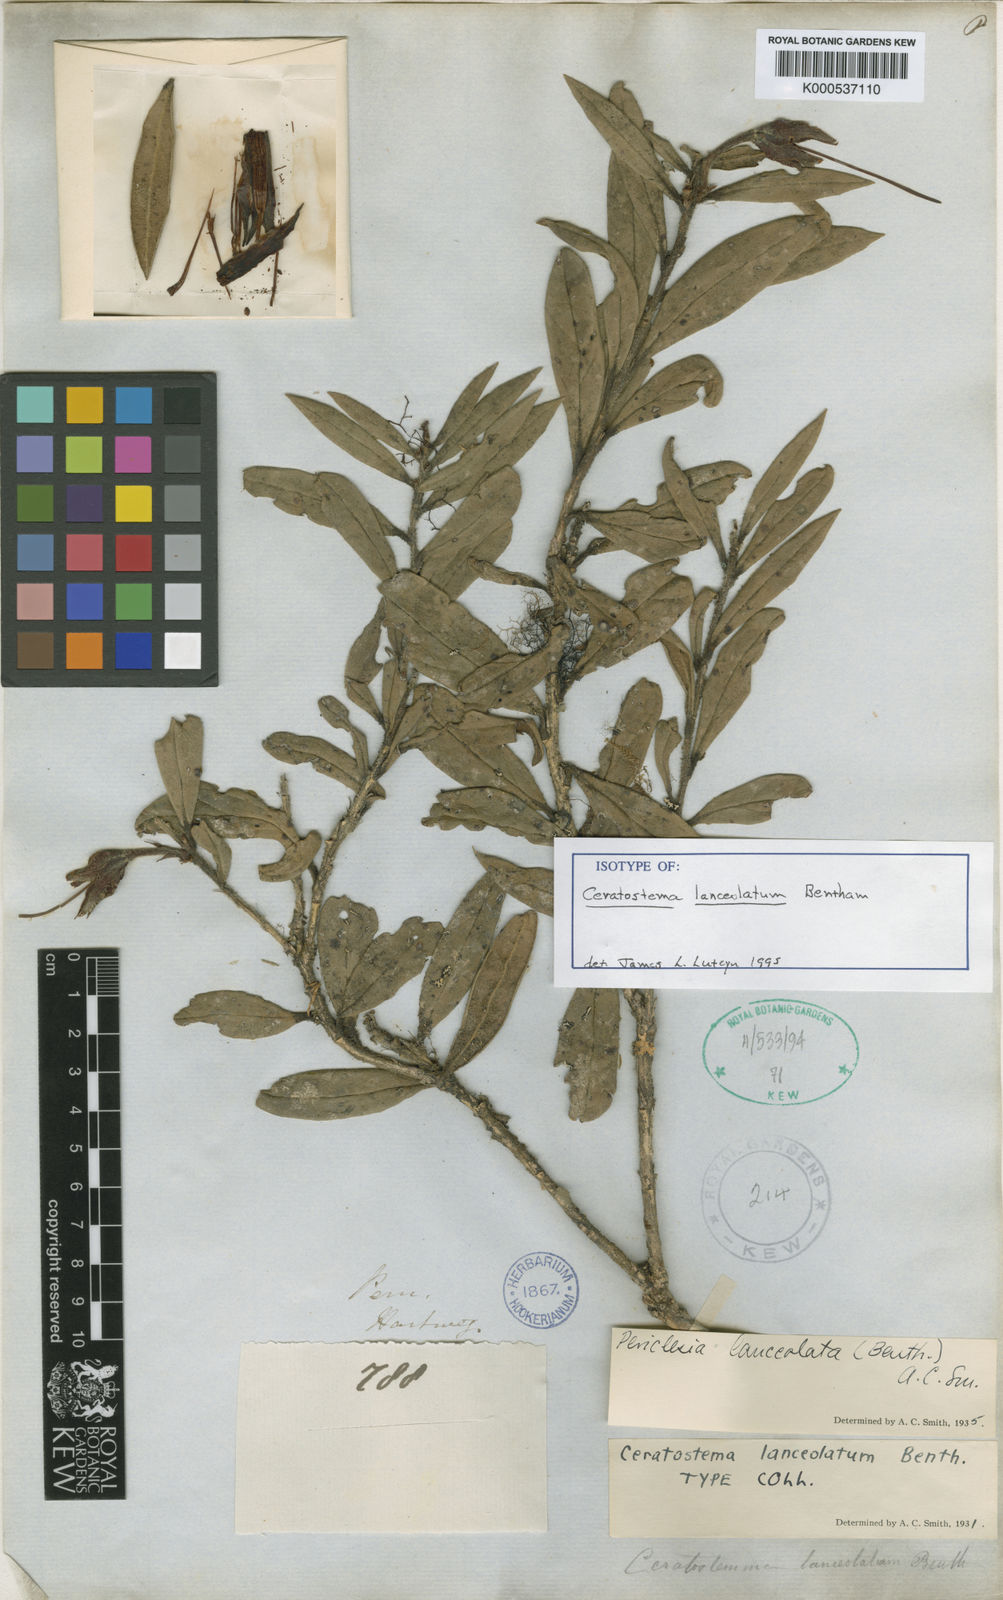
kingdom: Plantae
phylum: Tracheophyta
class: Magnoliopsida
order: Ericales
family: Ericaceae
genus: Ceratostema
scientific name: Ceratostema lanceolatum
